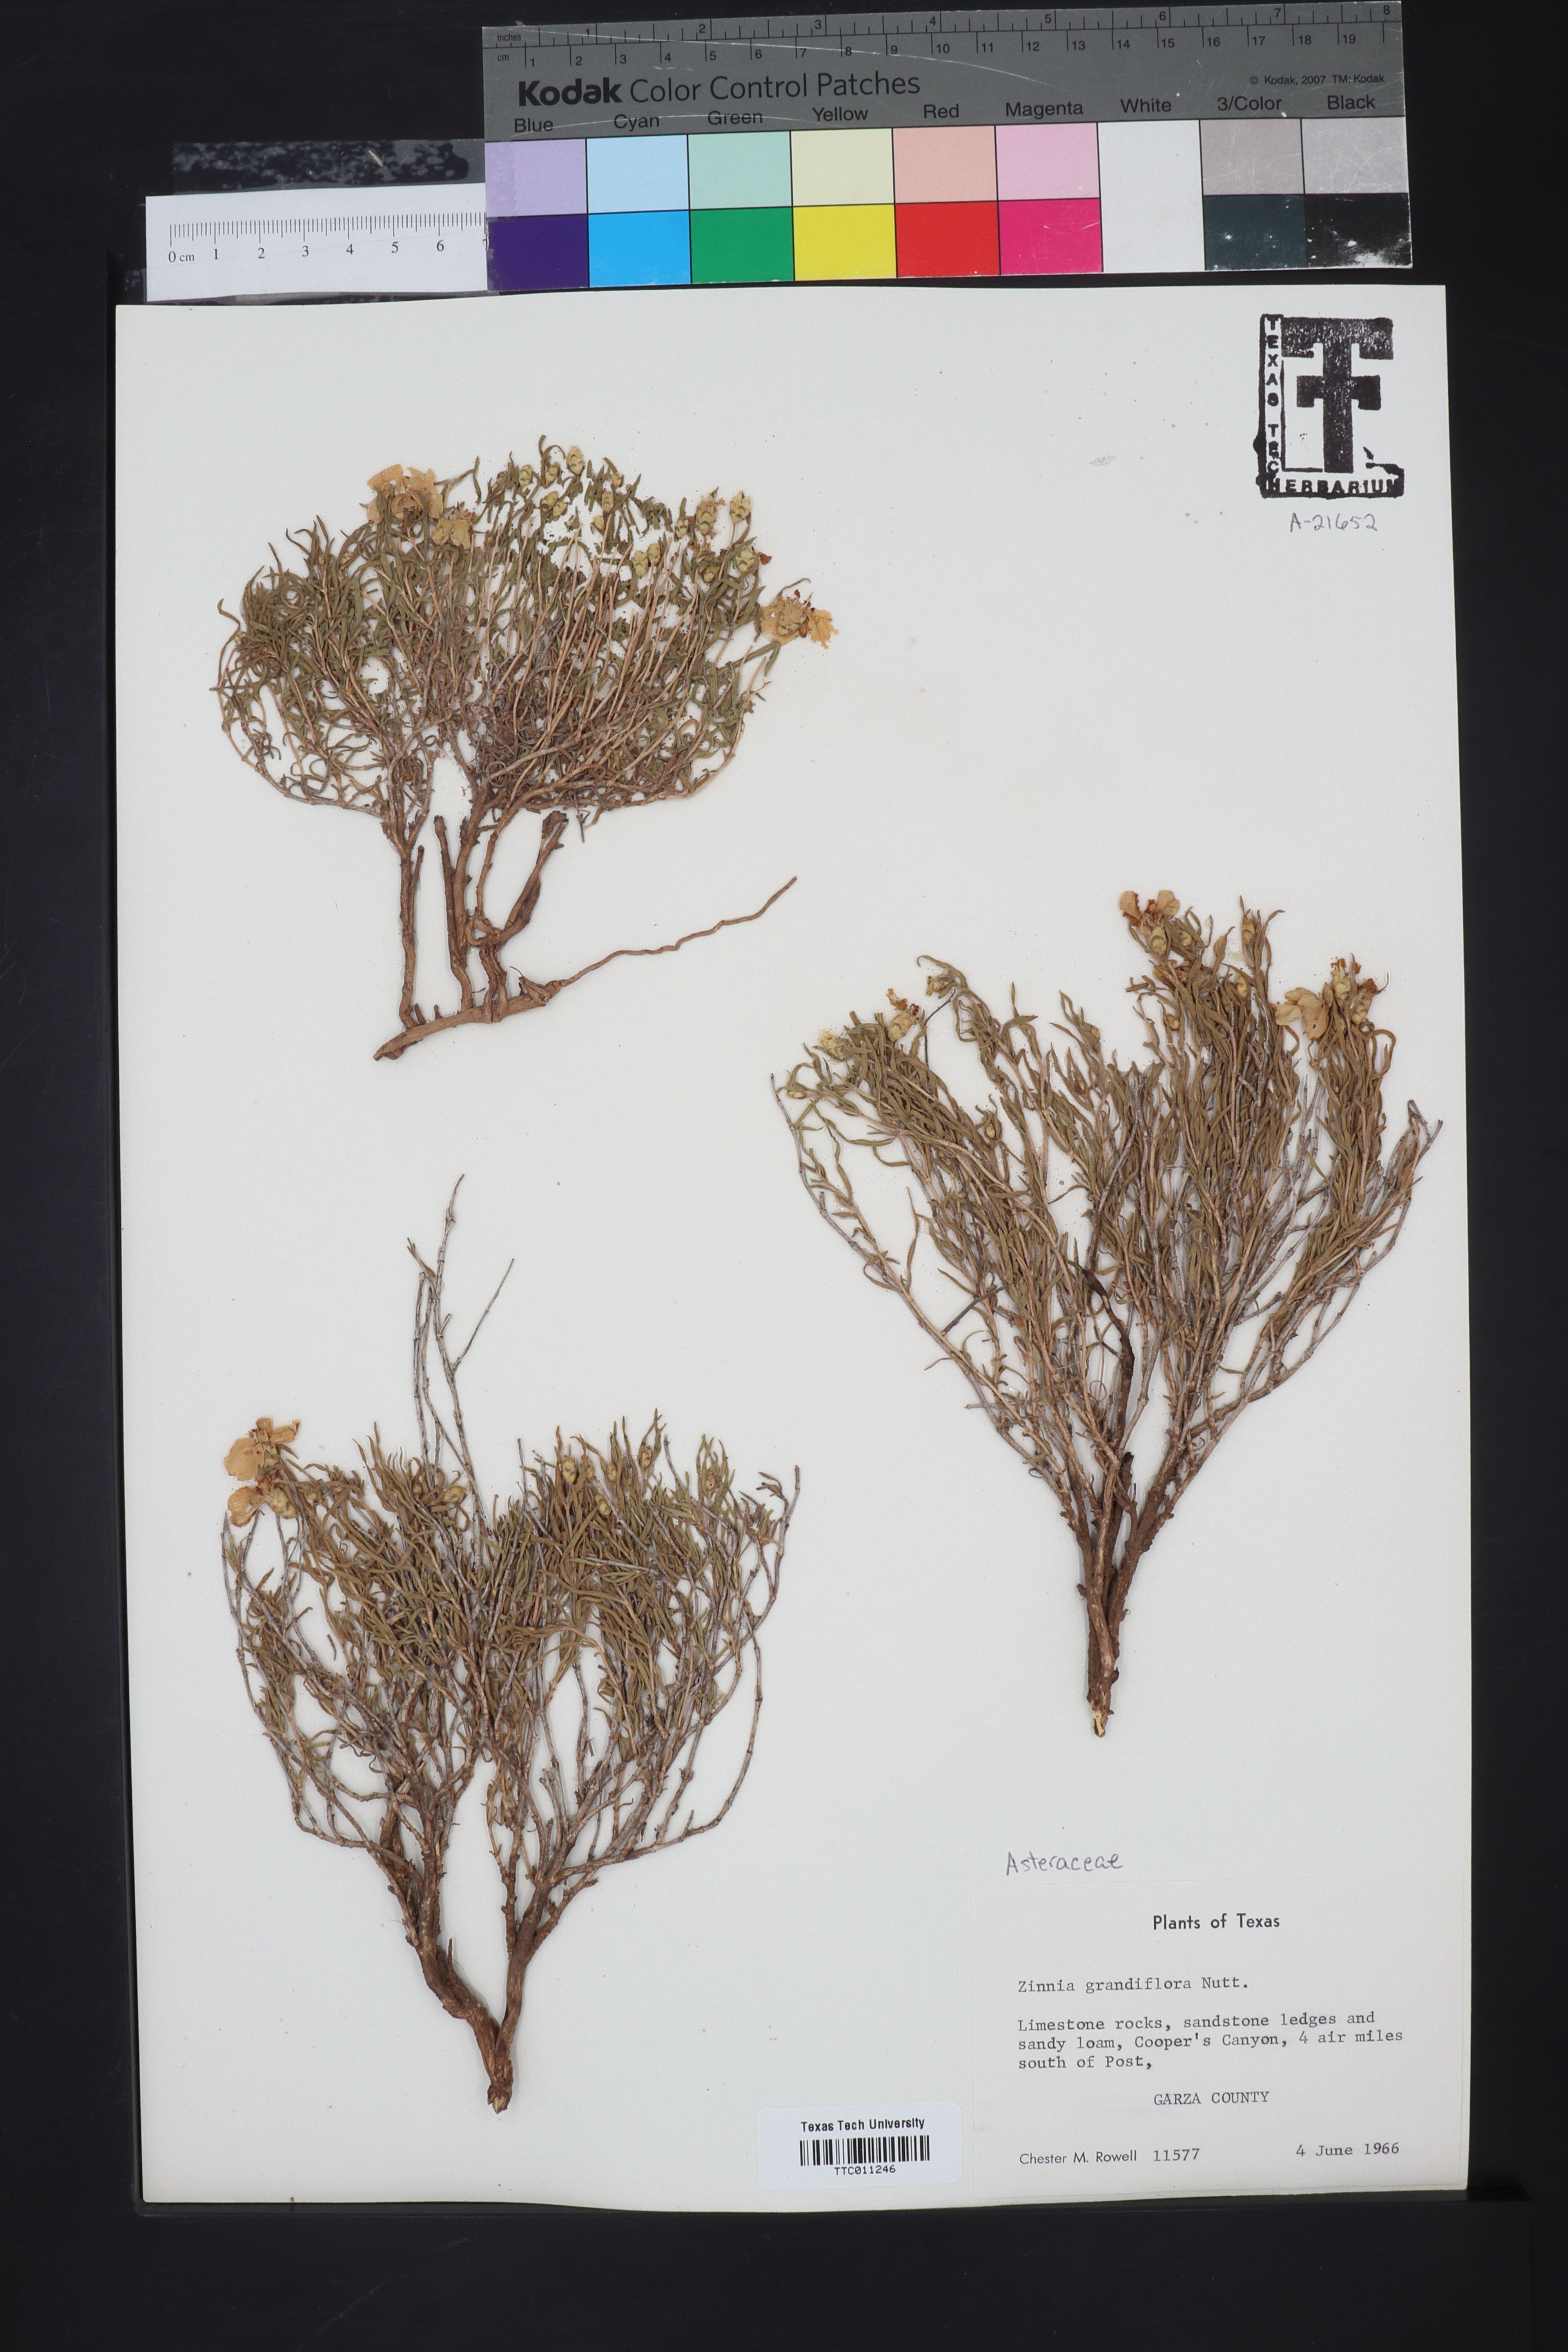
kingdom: Plantae
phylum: Tracheophyta
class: Magnoliopsida
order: Asterales
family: Asteraceae
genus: Zinnia
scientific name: Zinnia grandiflora
